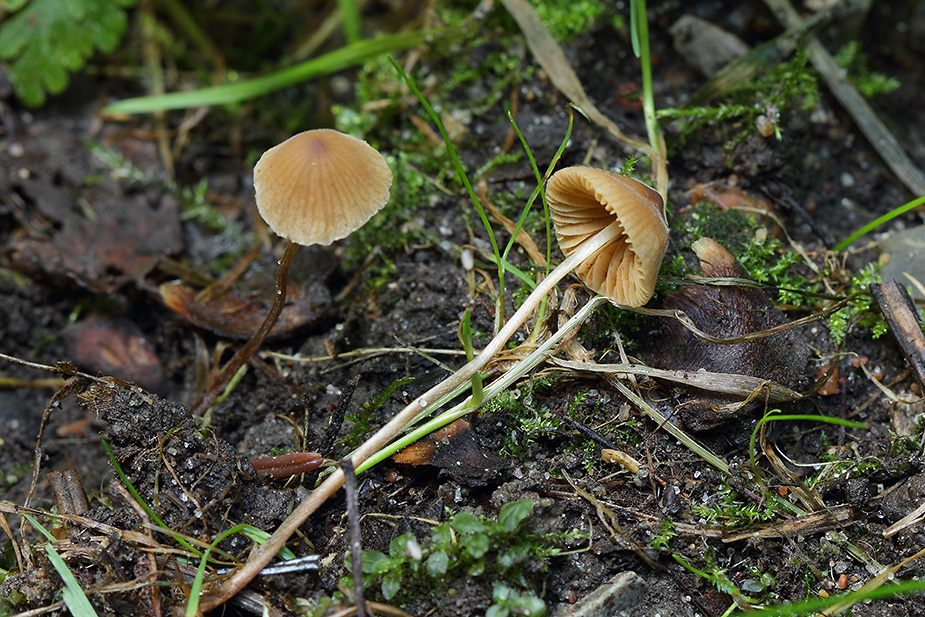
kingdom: Fungi
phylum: Basidiomycota
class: Agaricomycetes
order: Agaricales
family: Bolbitiaceae
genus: Conocybe
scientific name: Conocybe
